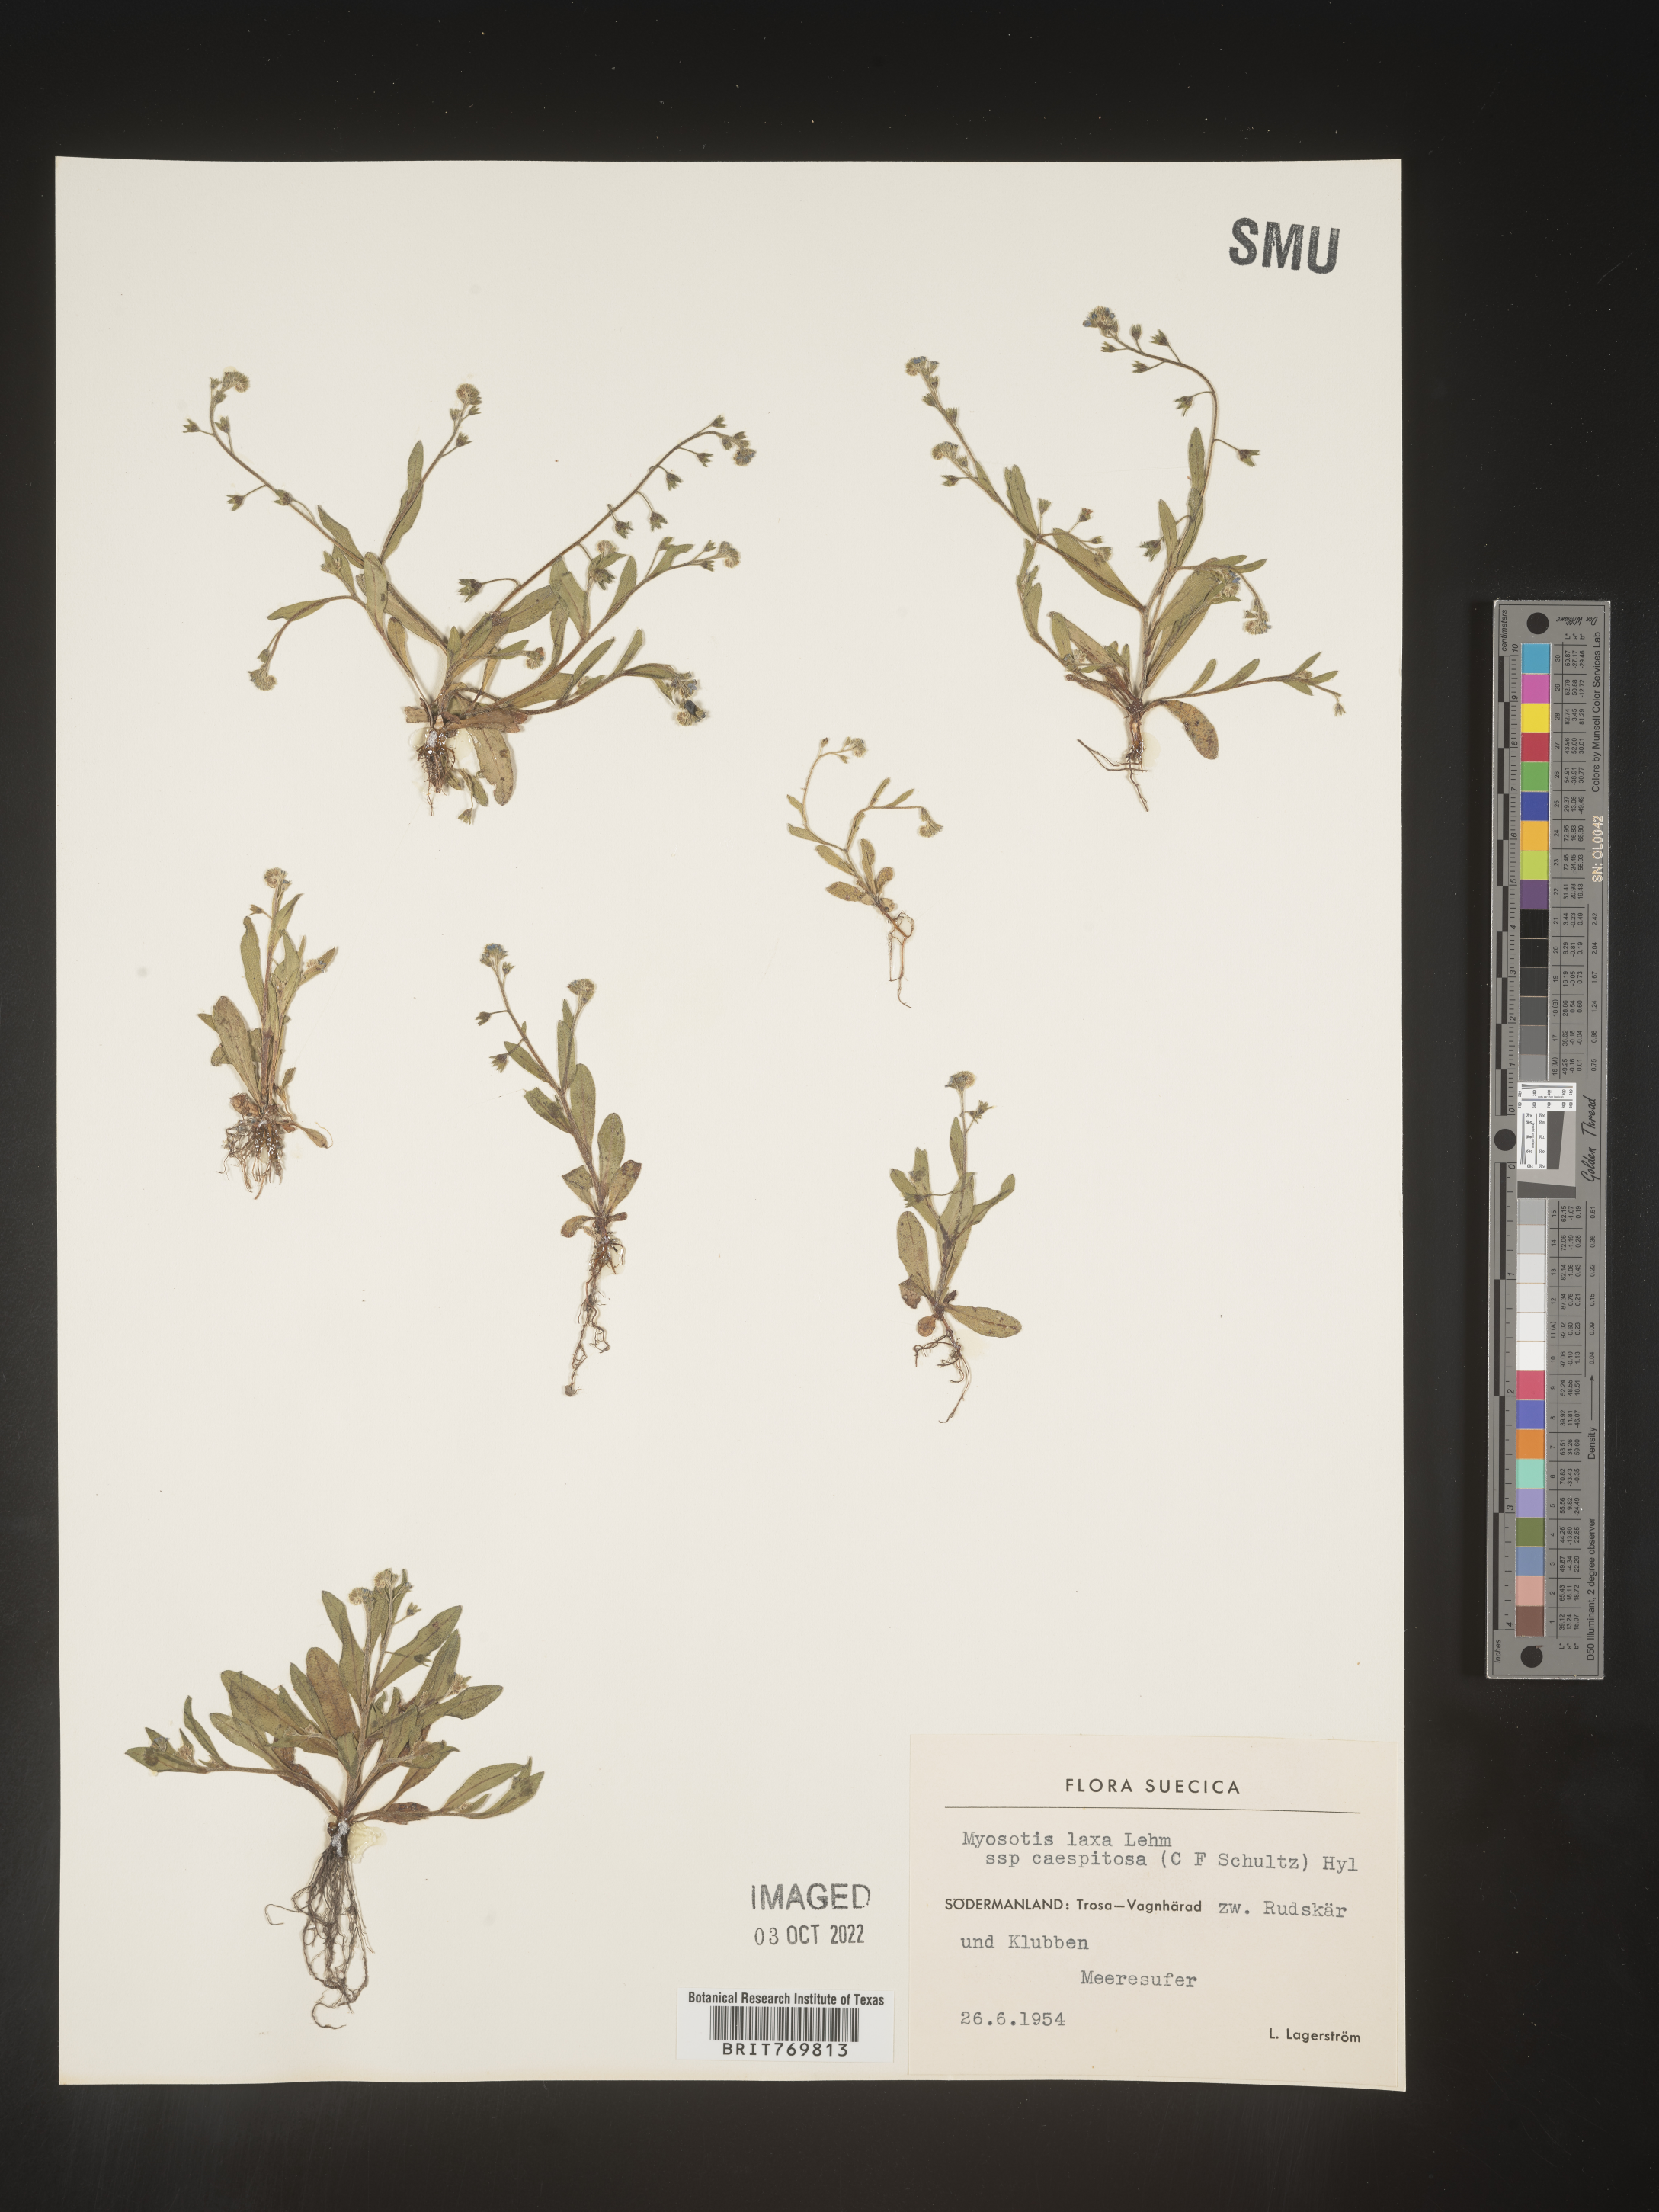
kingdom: Plantae
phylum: Tracheophyta
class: Magnoliopsida
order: Boraginales
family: Boraginaceae
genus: Myosotis
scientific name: Myosotis
